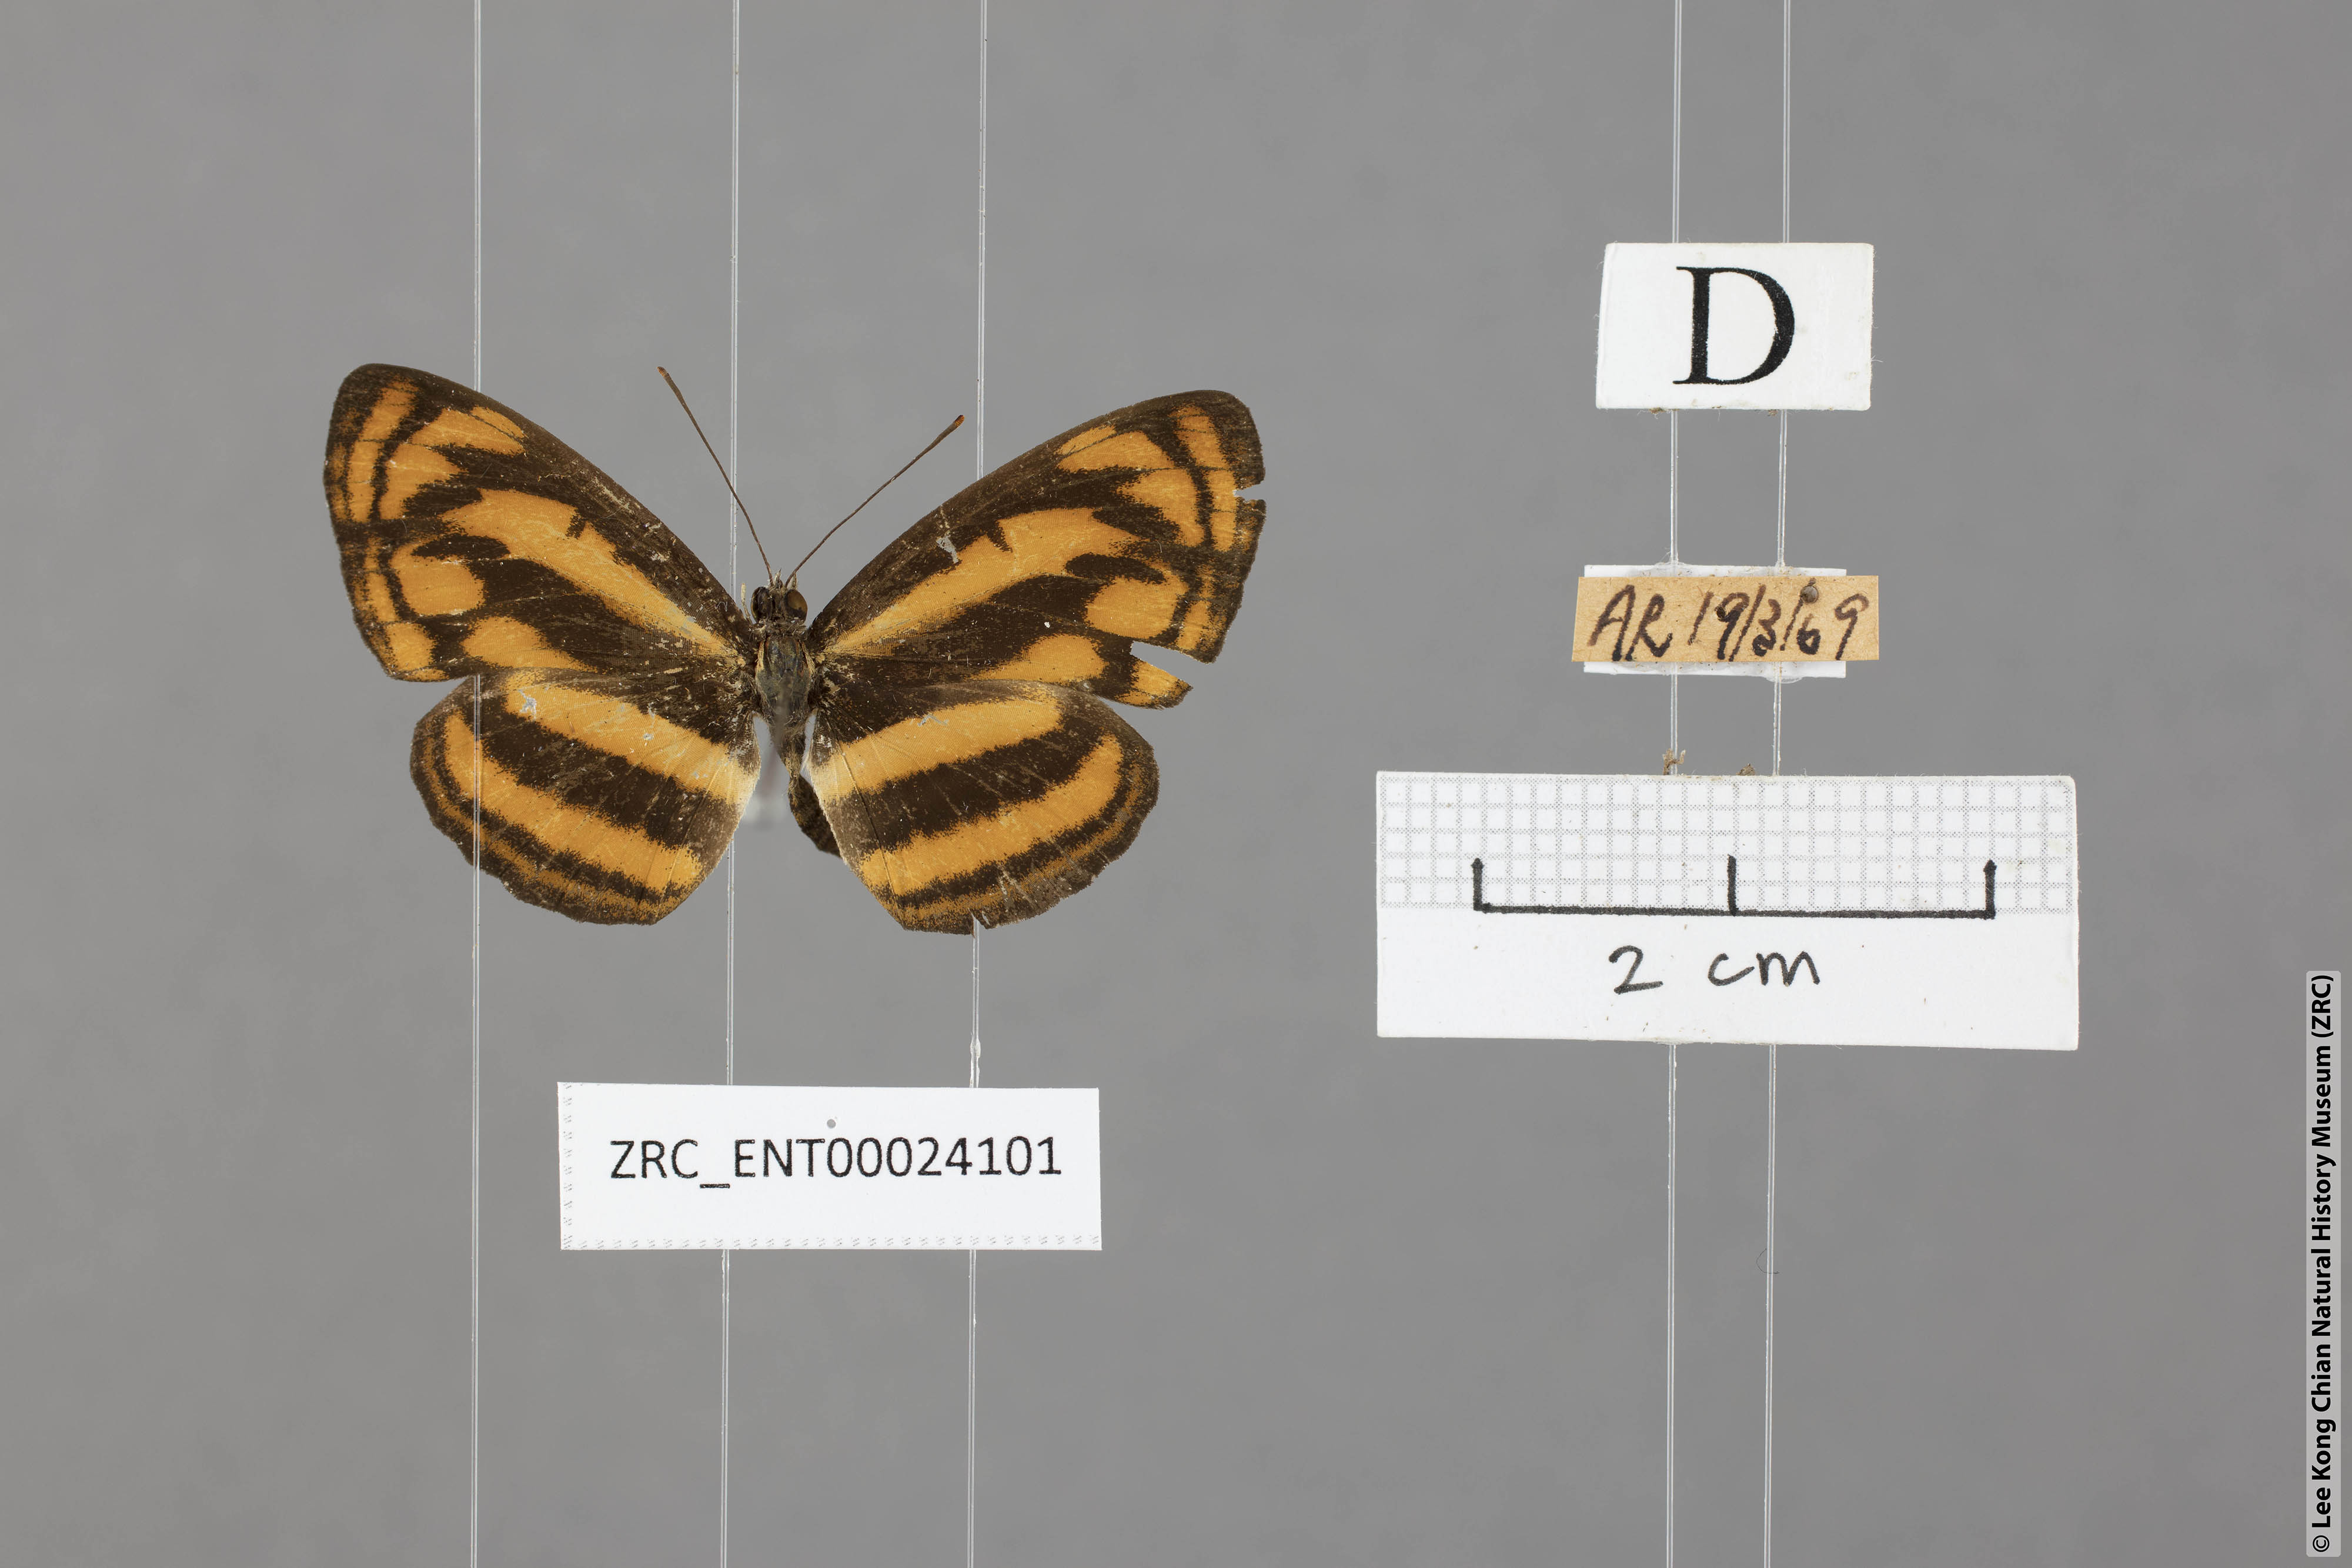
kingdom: Animalia
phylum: Arthropoda
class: Insecta
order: Lepidoptera
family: Nymphalidae
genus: Pantoporia
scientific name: Pantoporia aurelia
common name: Baby lascar
